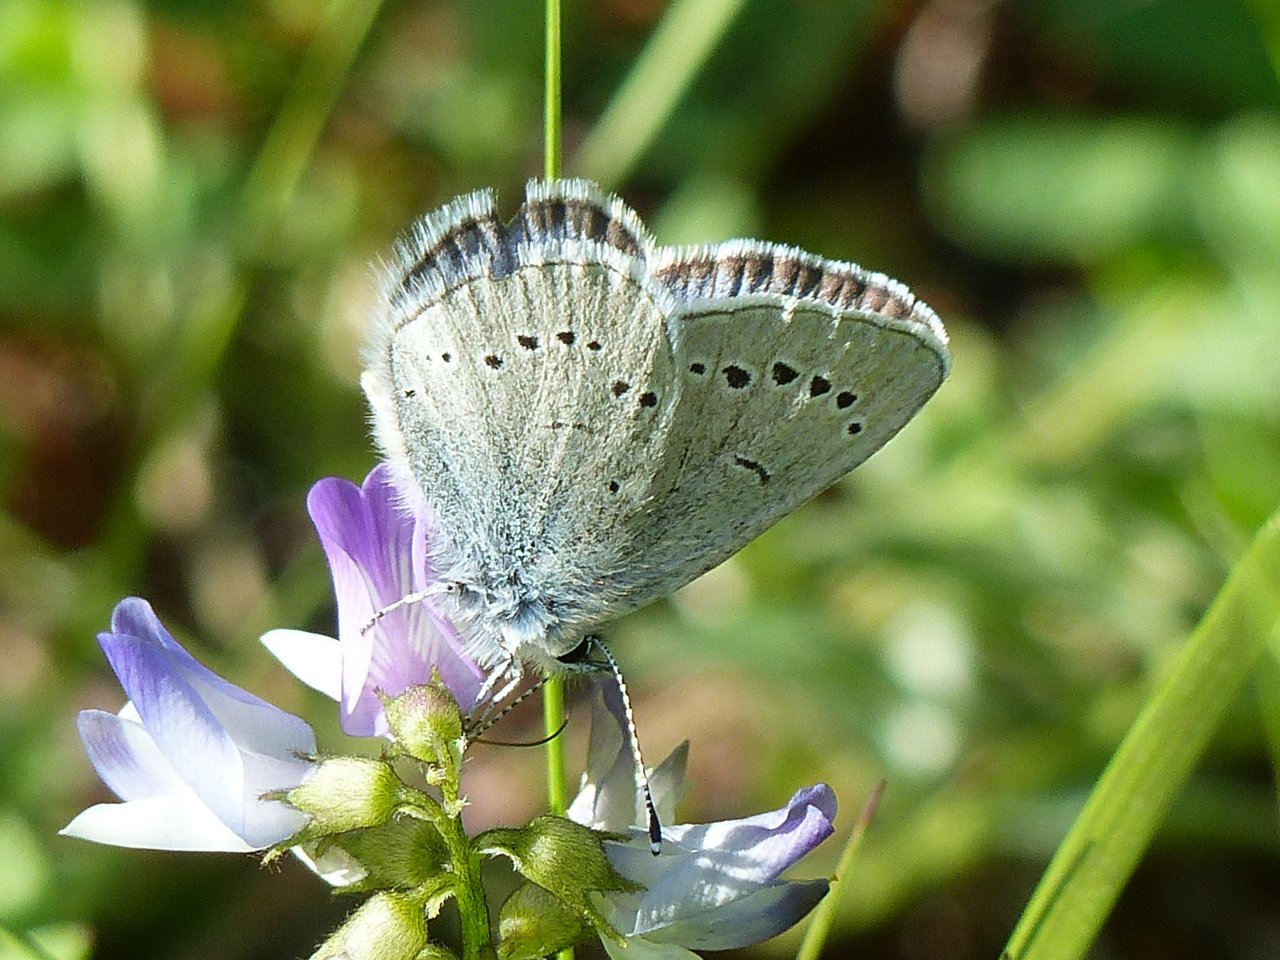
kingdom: Animalia
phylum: Arthropoda
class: Insecta
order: Lepidoptera
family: Lycaenidae
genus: Glaucopsyche
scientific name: Glaucopsyche lygdamus
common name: Silvery Blue
